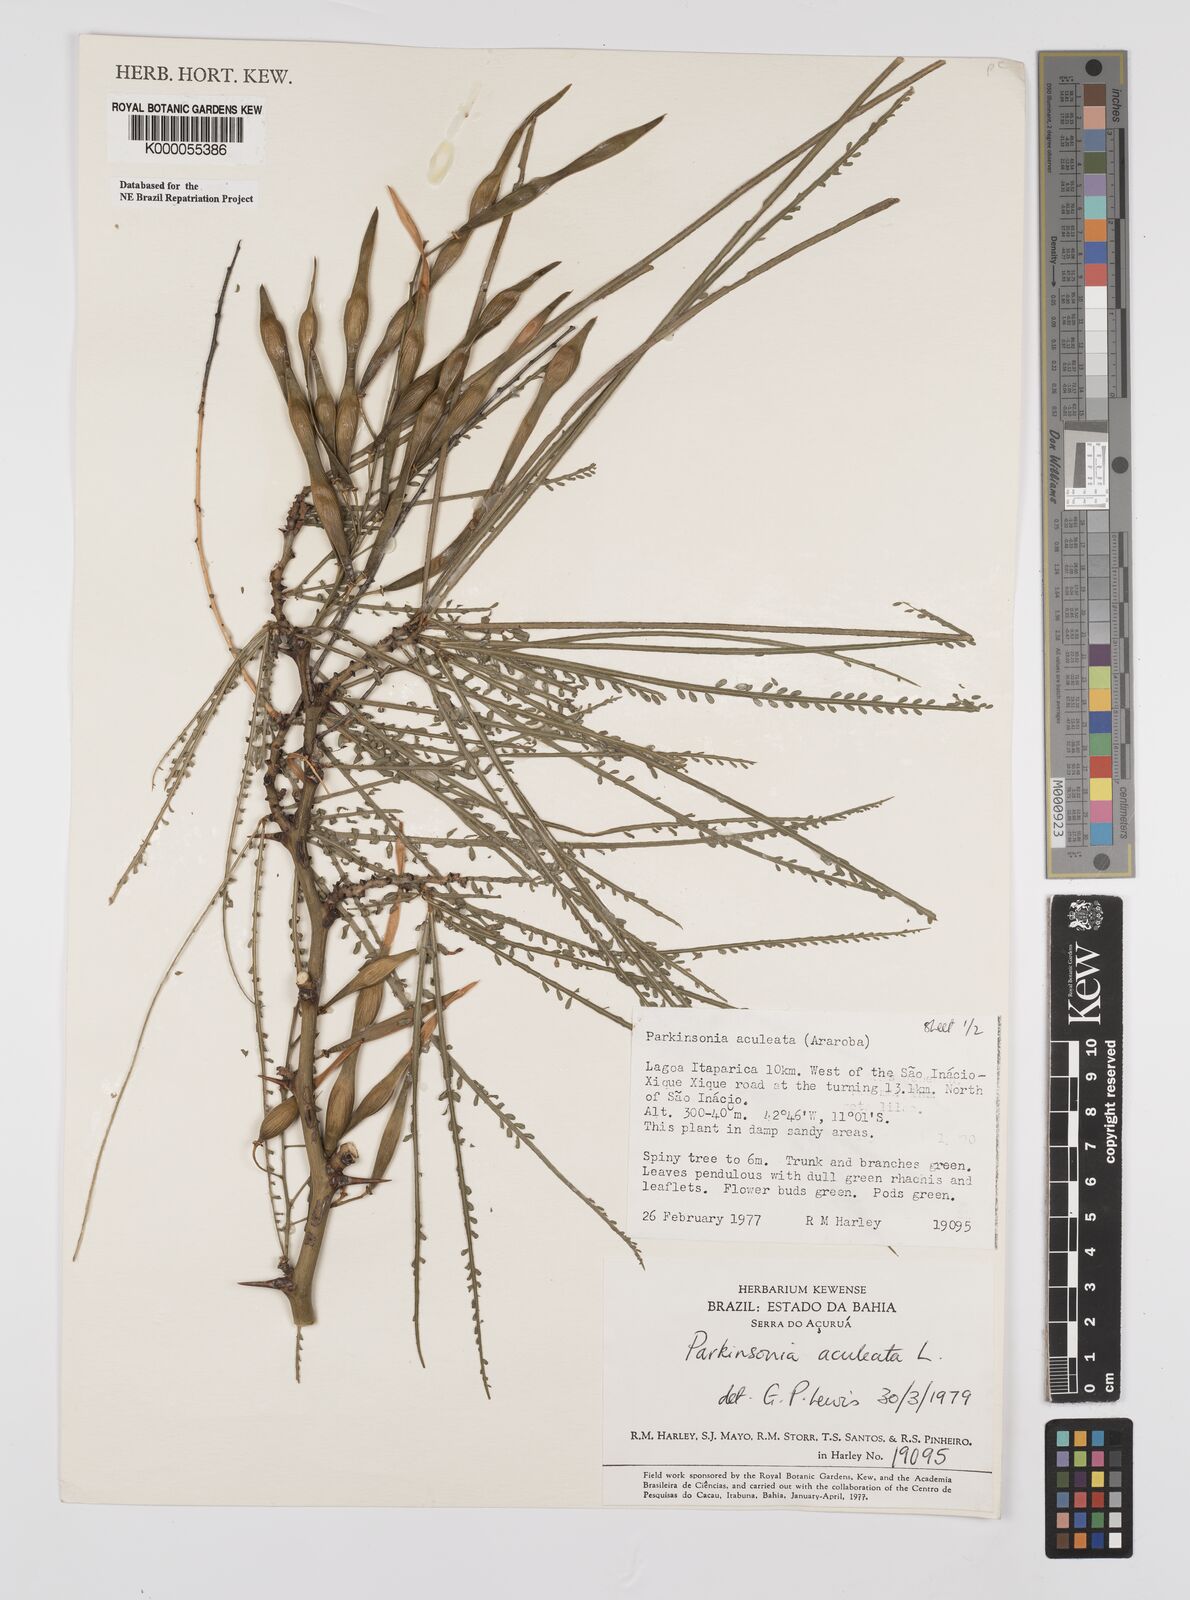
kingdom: Plantae
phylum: Tracheophyta
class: Magnoliopsida
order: Fabales
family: Fabaceae
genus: Parkinsonia
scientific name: Parkinsonia aculeata
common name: Jerusalem thorn
